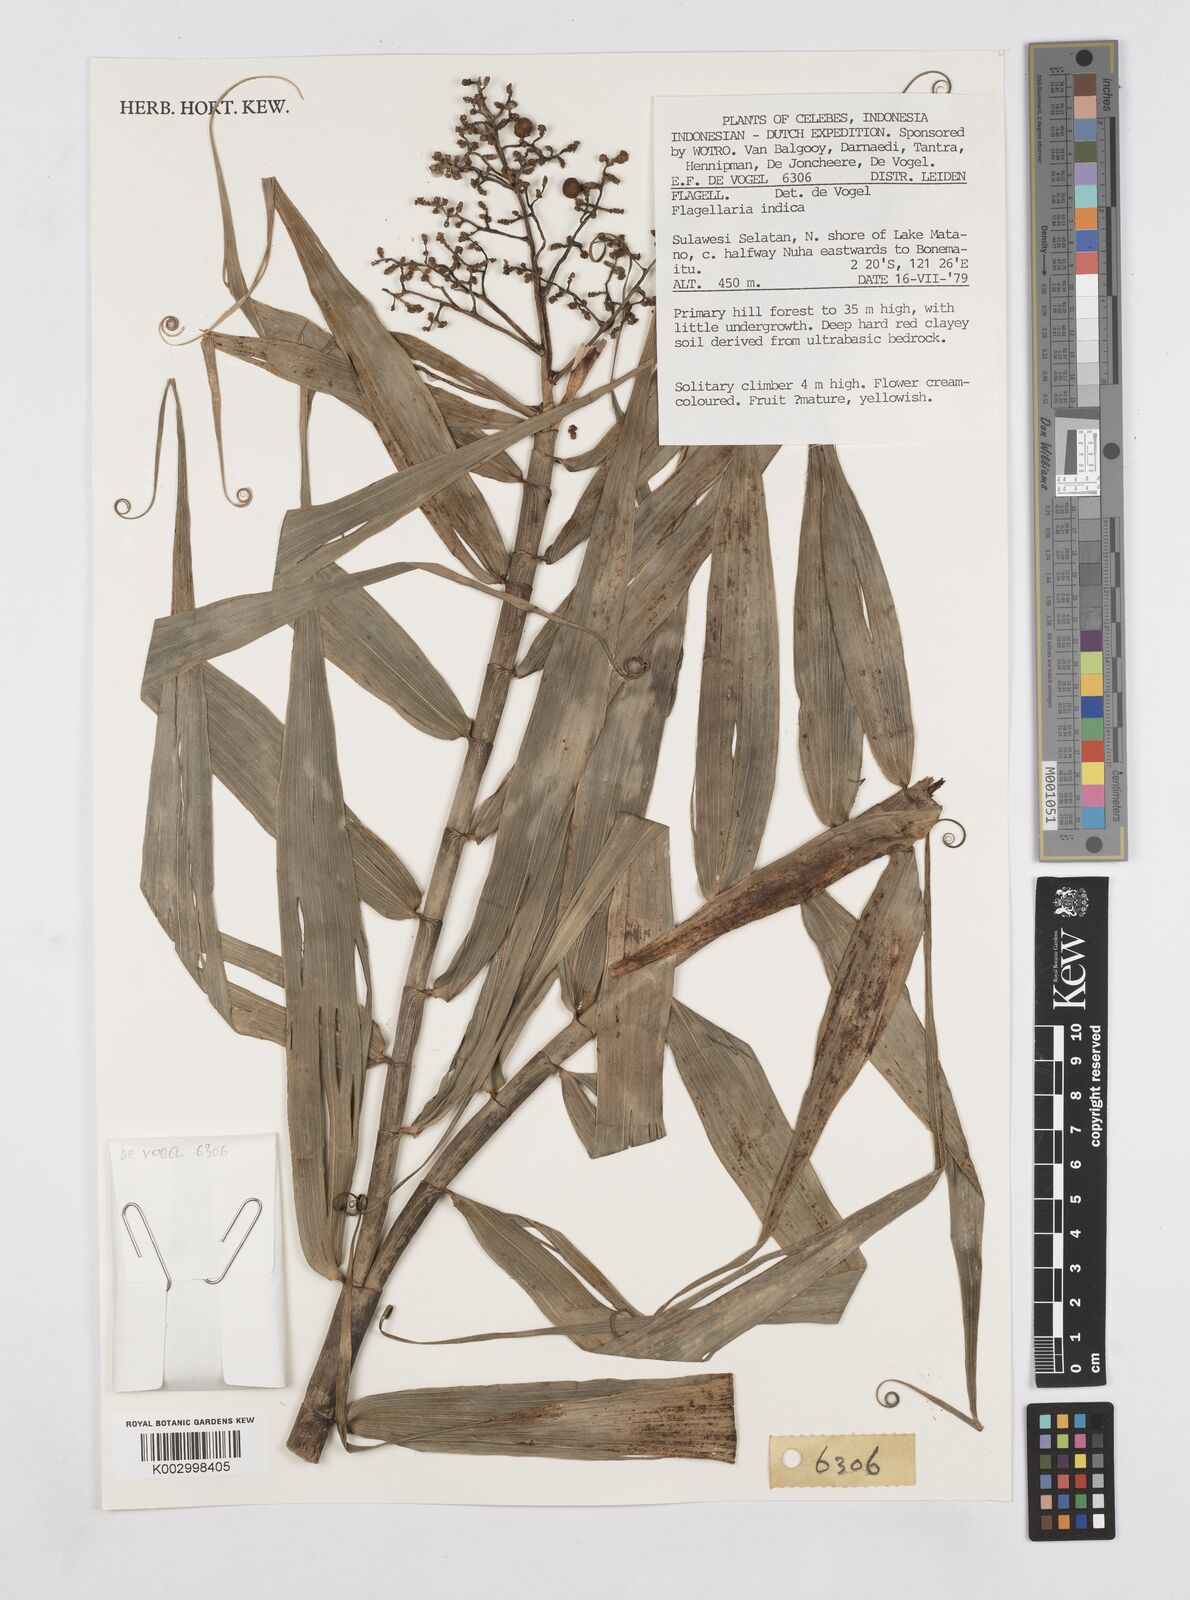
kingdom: Plantae
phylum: Tracheophyta
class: Liliopsida
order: Poales
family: Flagellariaceae
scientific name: Flagellariaceae
